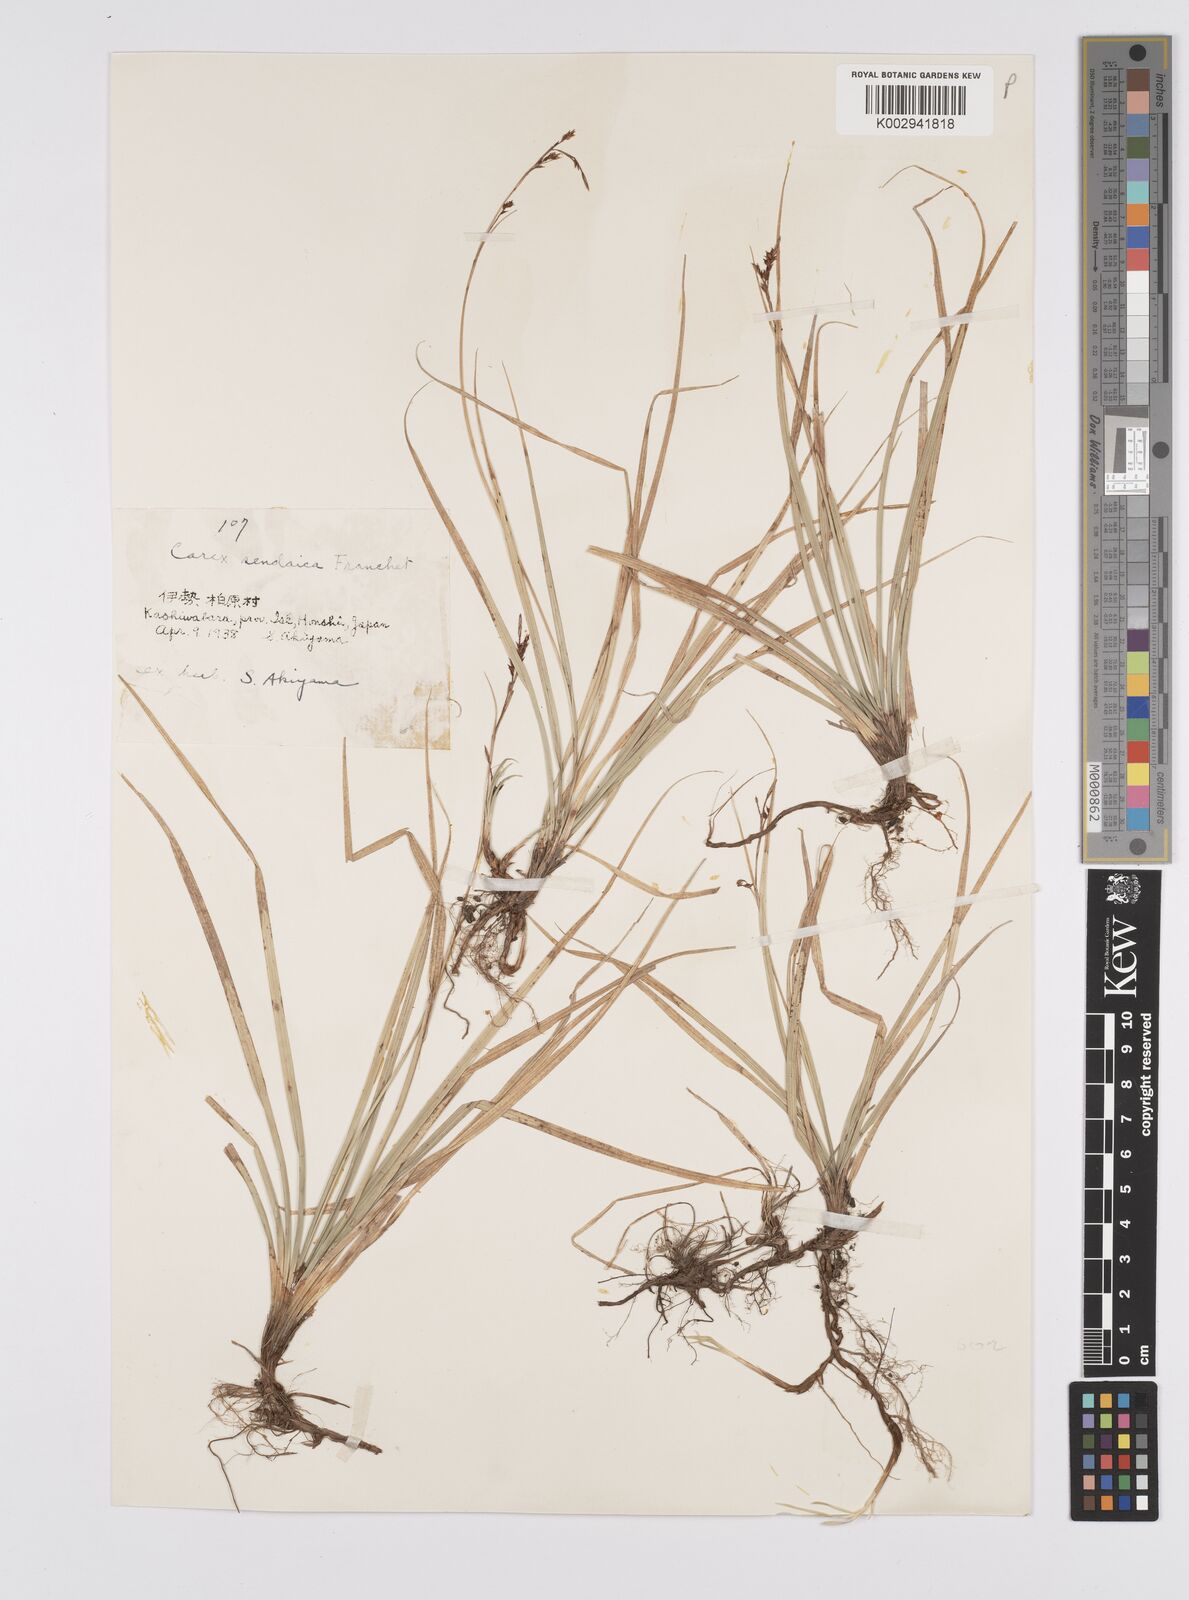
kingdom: Plantae
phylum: Tracheophyta
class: Liliopsida
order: Poales
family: Cyperaceae
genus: Carex
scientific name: Carex brunnea
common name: Greater brown sedge
